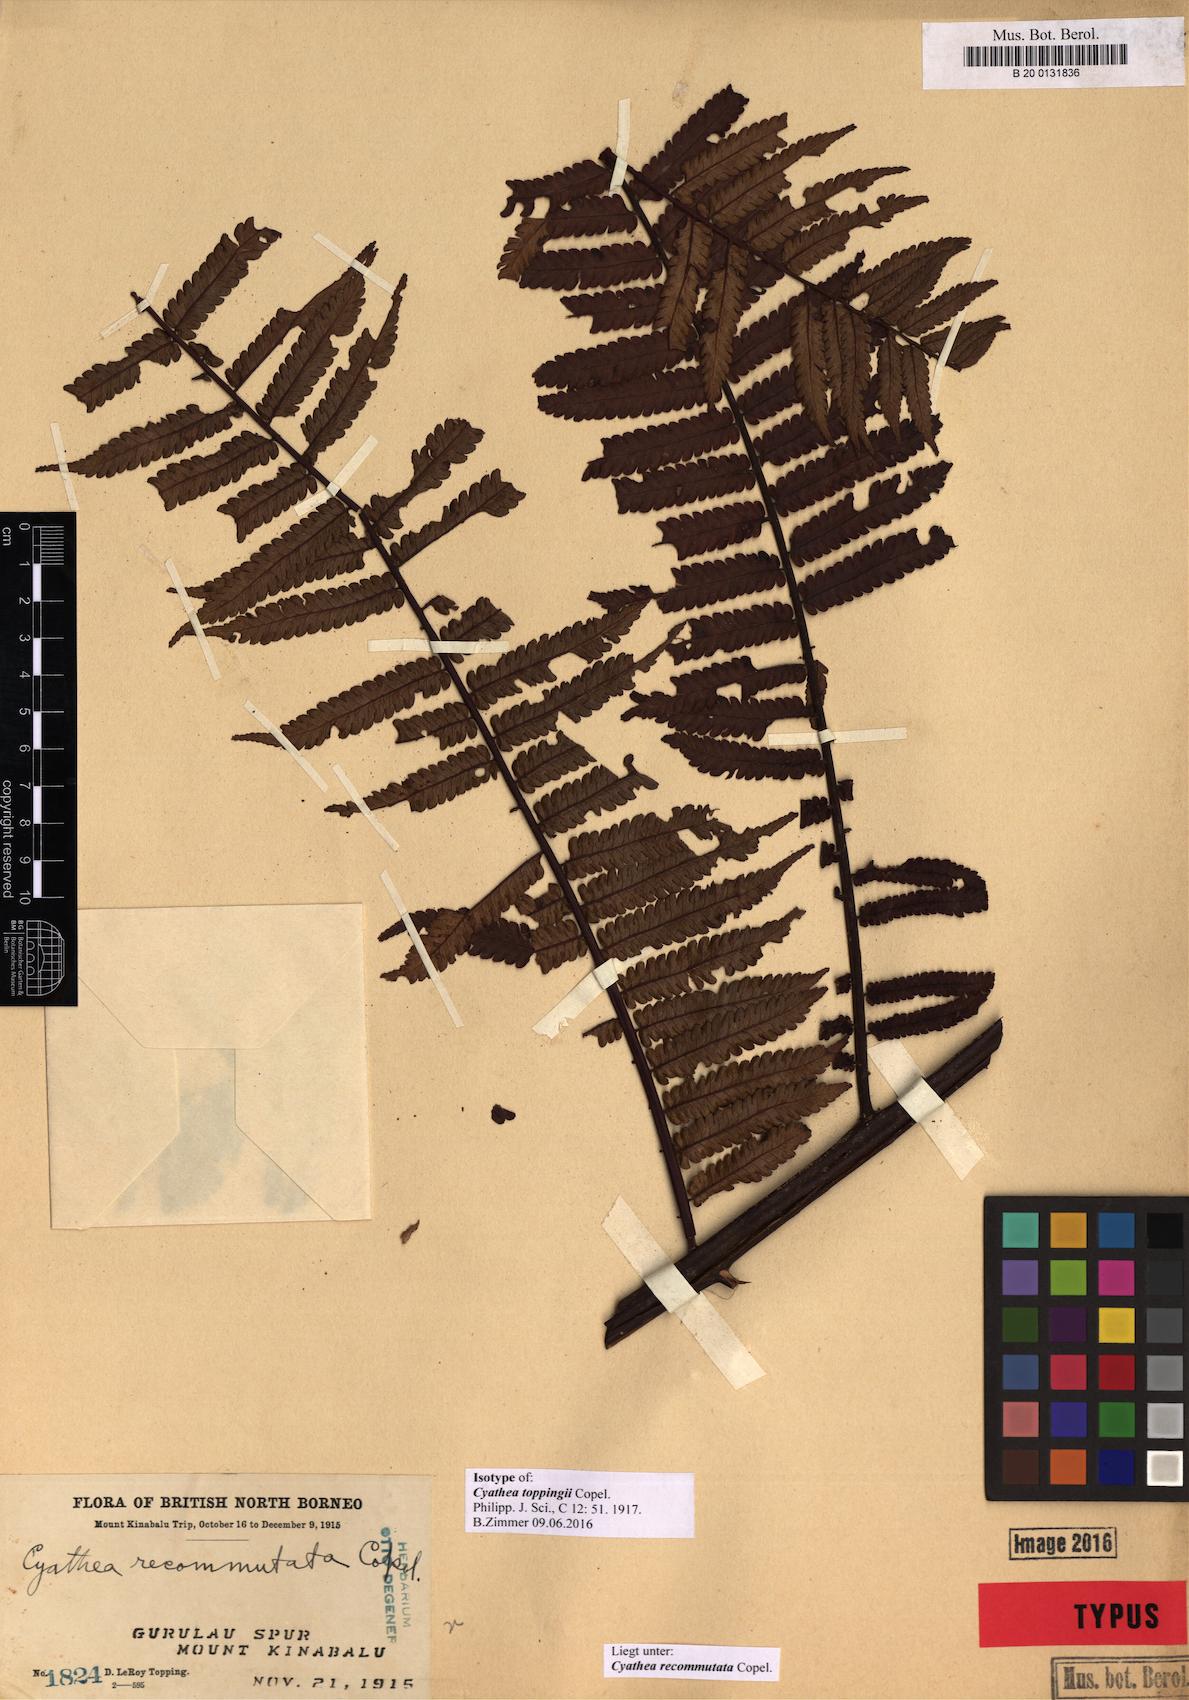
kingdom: Plantae
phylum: Tracheophyta
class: Polypodiopsida
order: Cyatheales
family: Cyatheaceae
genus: Gymnosphaera
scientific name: Gymnosphaera commutata
